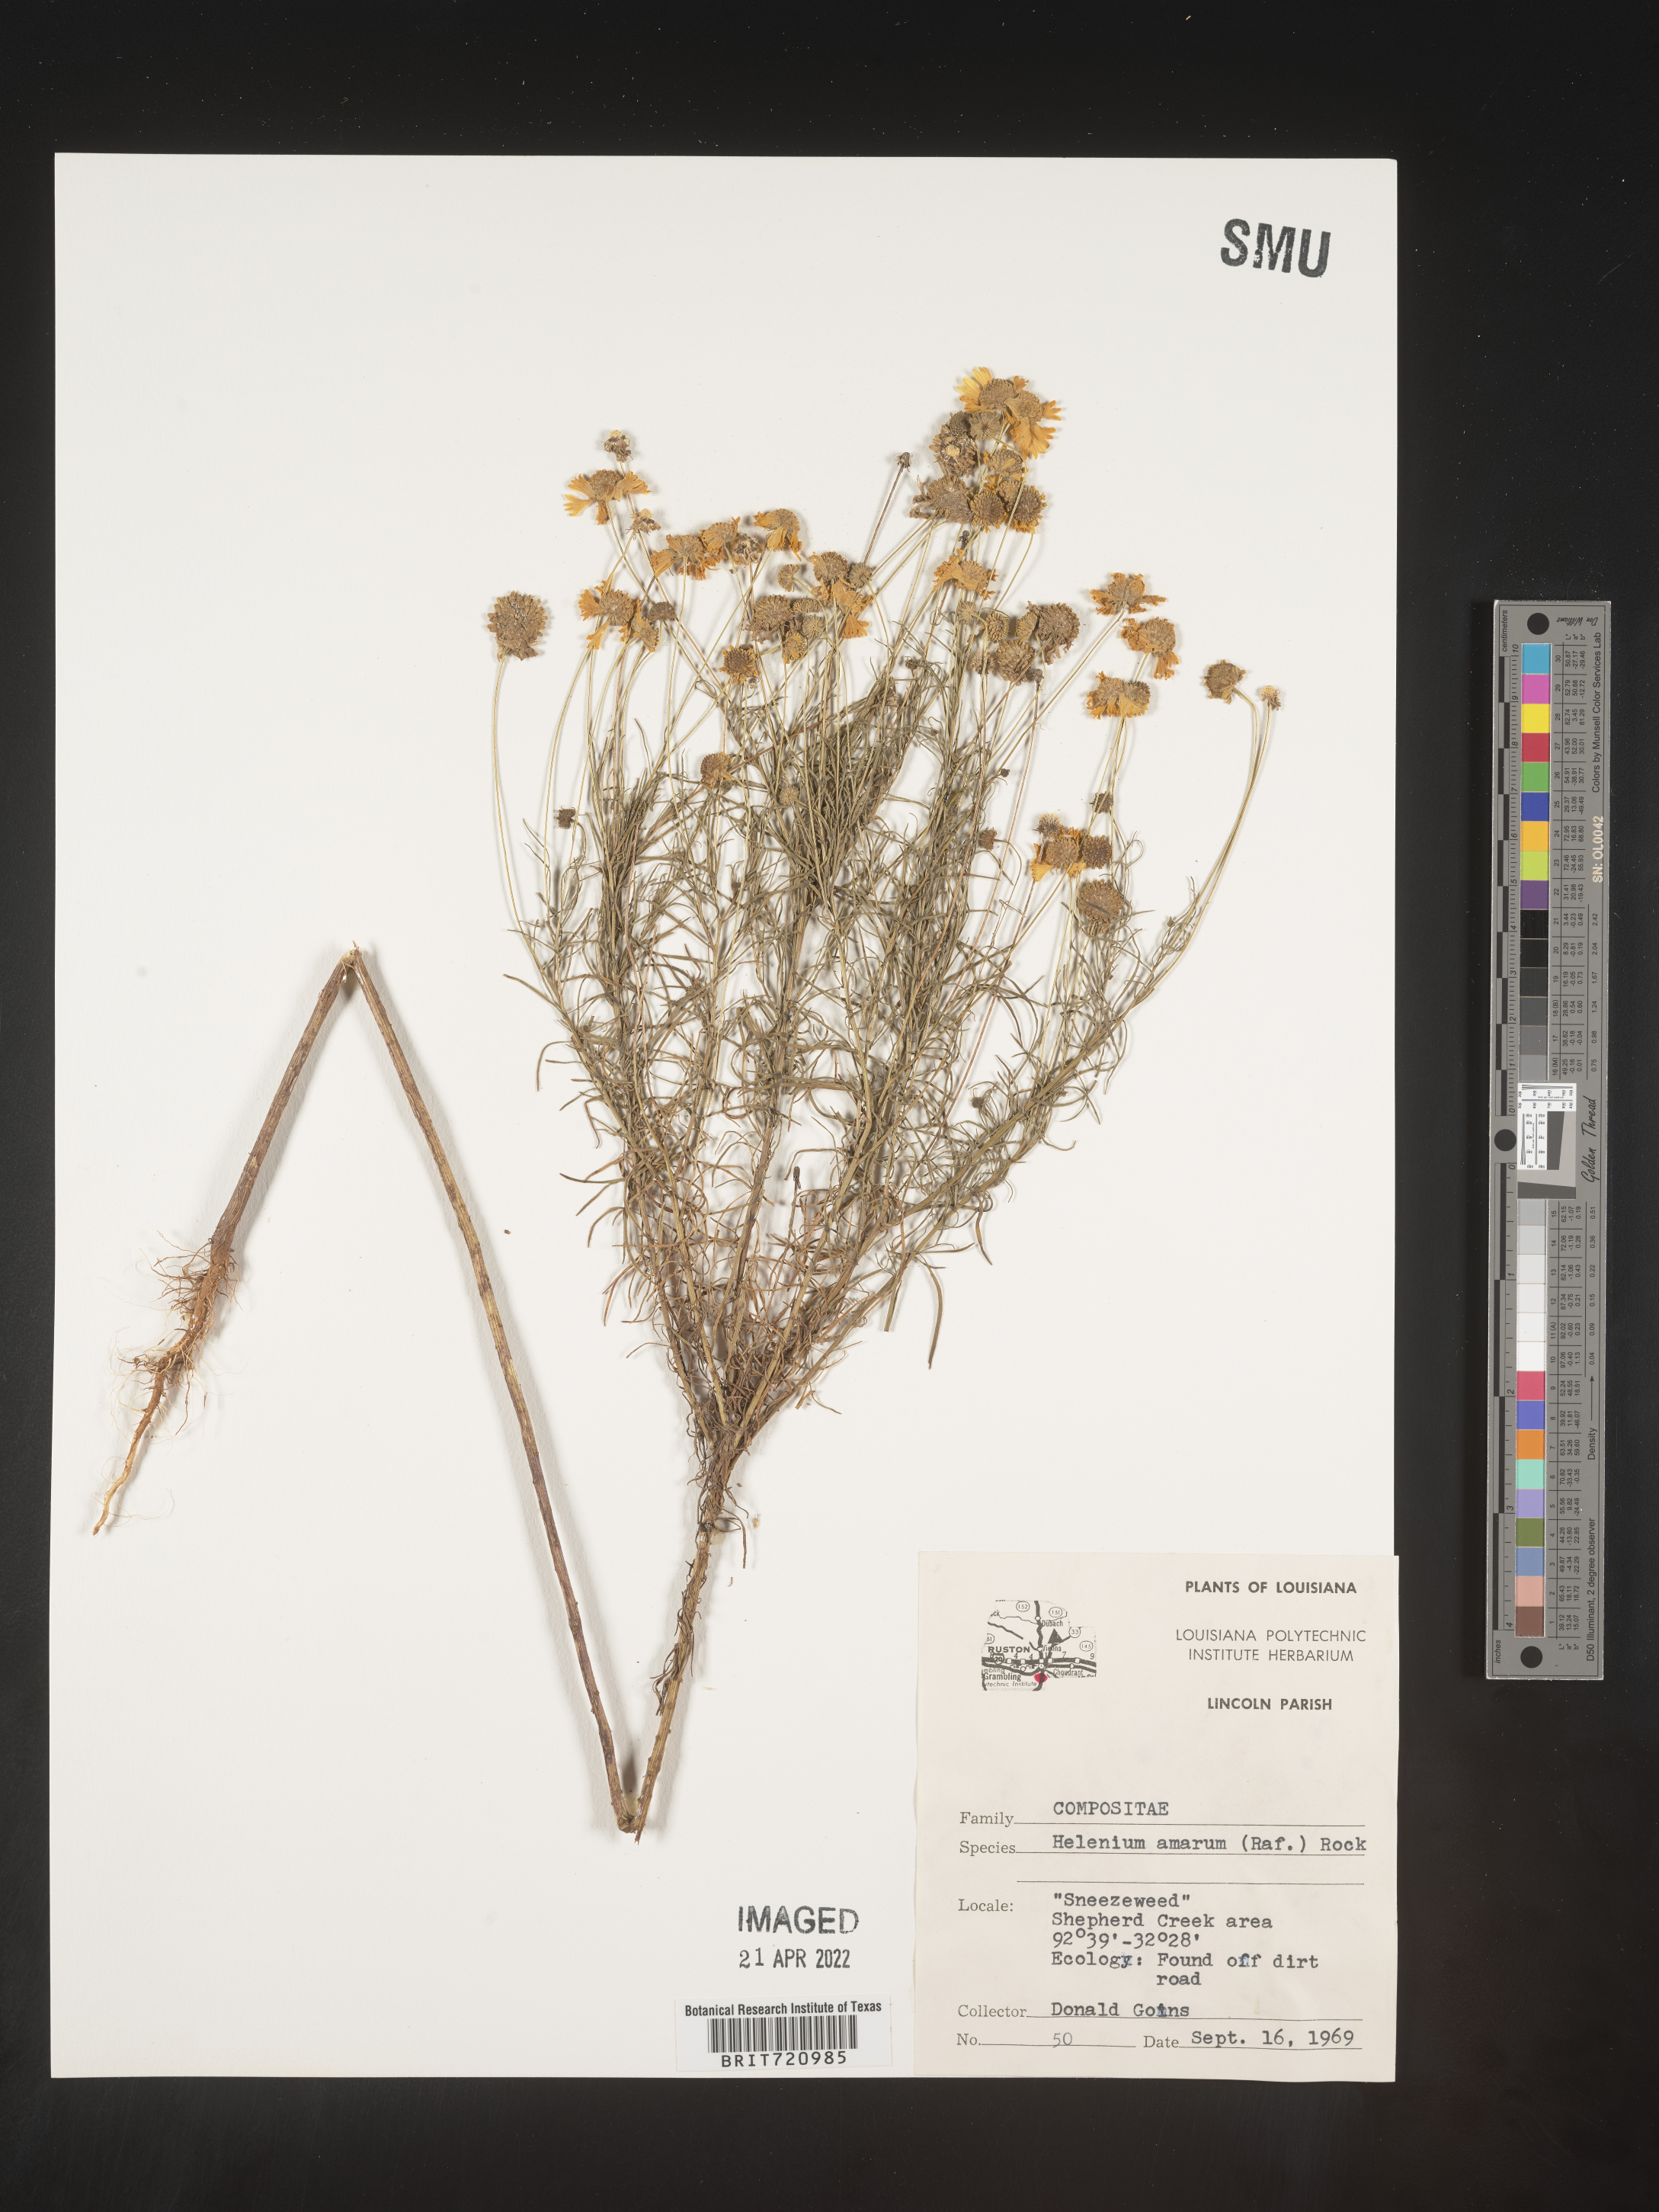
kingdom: Plantae
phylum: Tracheophyta
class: Magnoliopsida
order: Asterales
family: Asteraceae
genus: Helenium
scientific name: Helenium amarum
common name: Bitter sneezeweed
